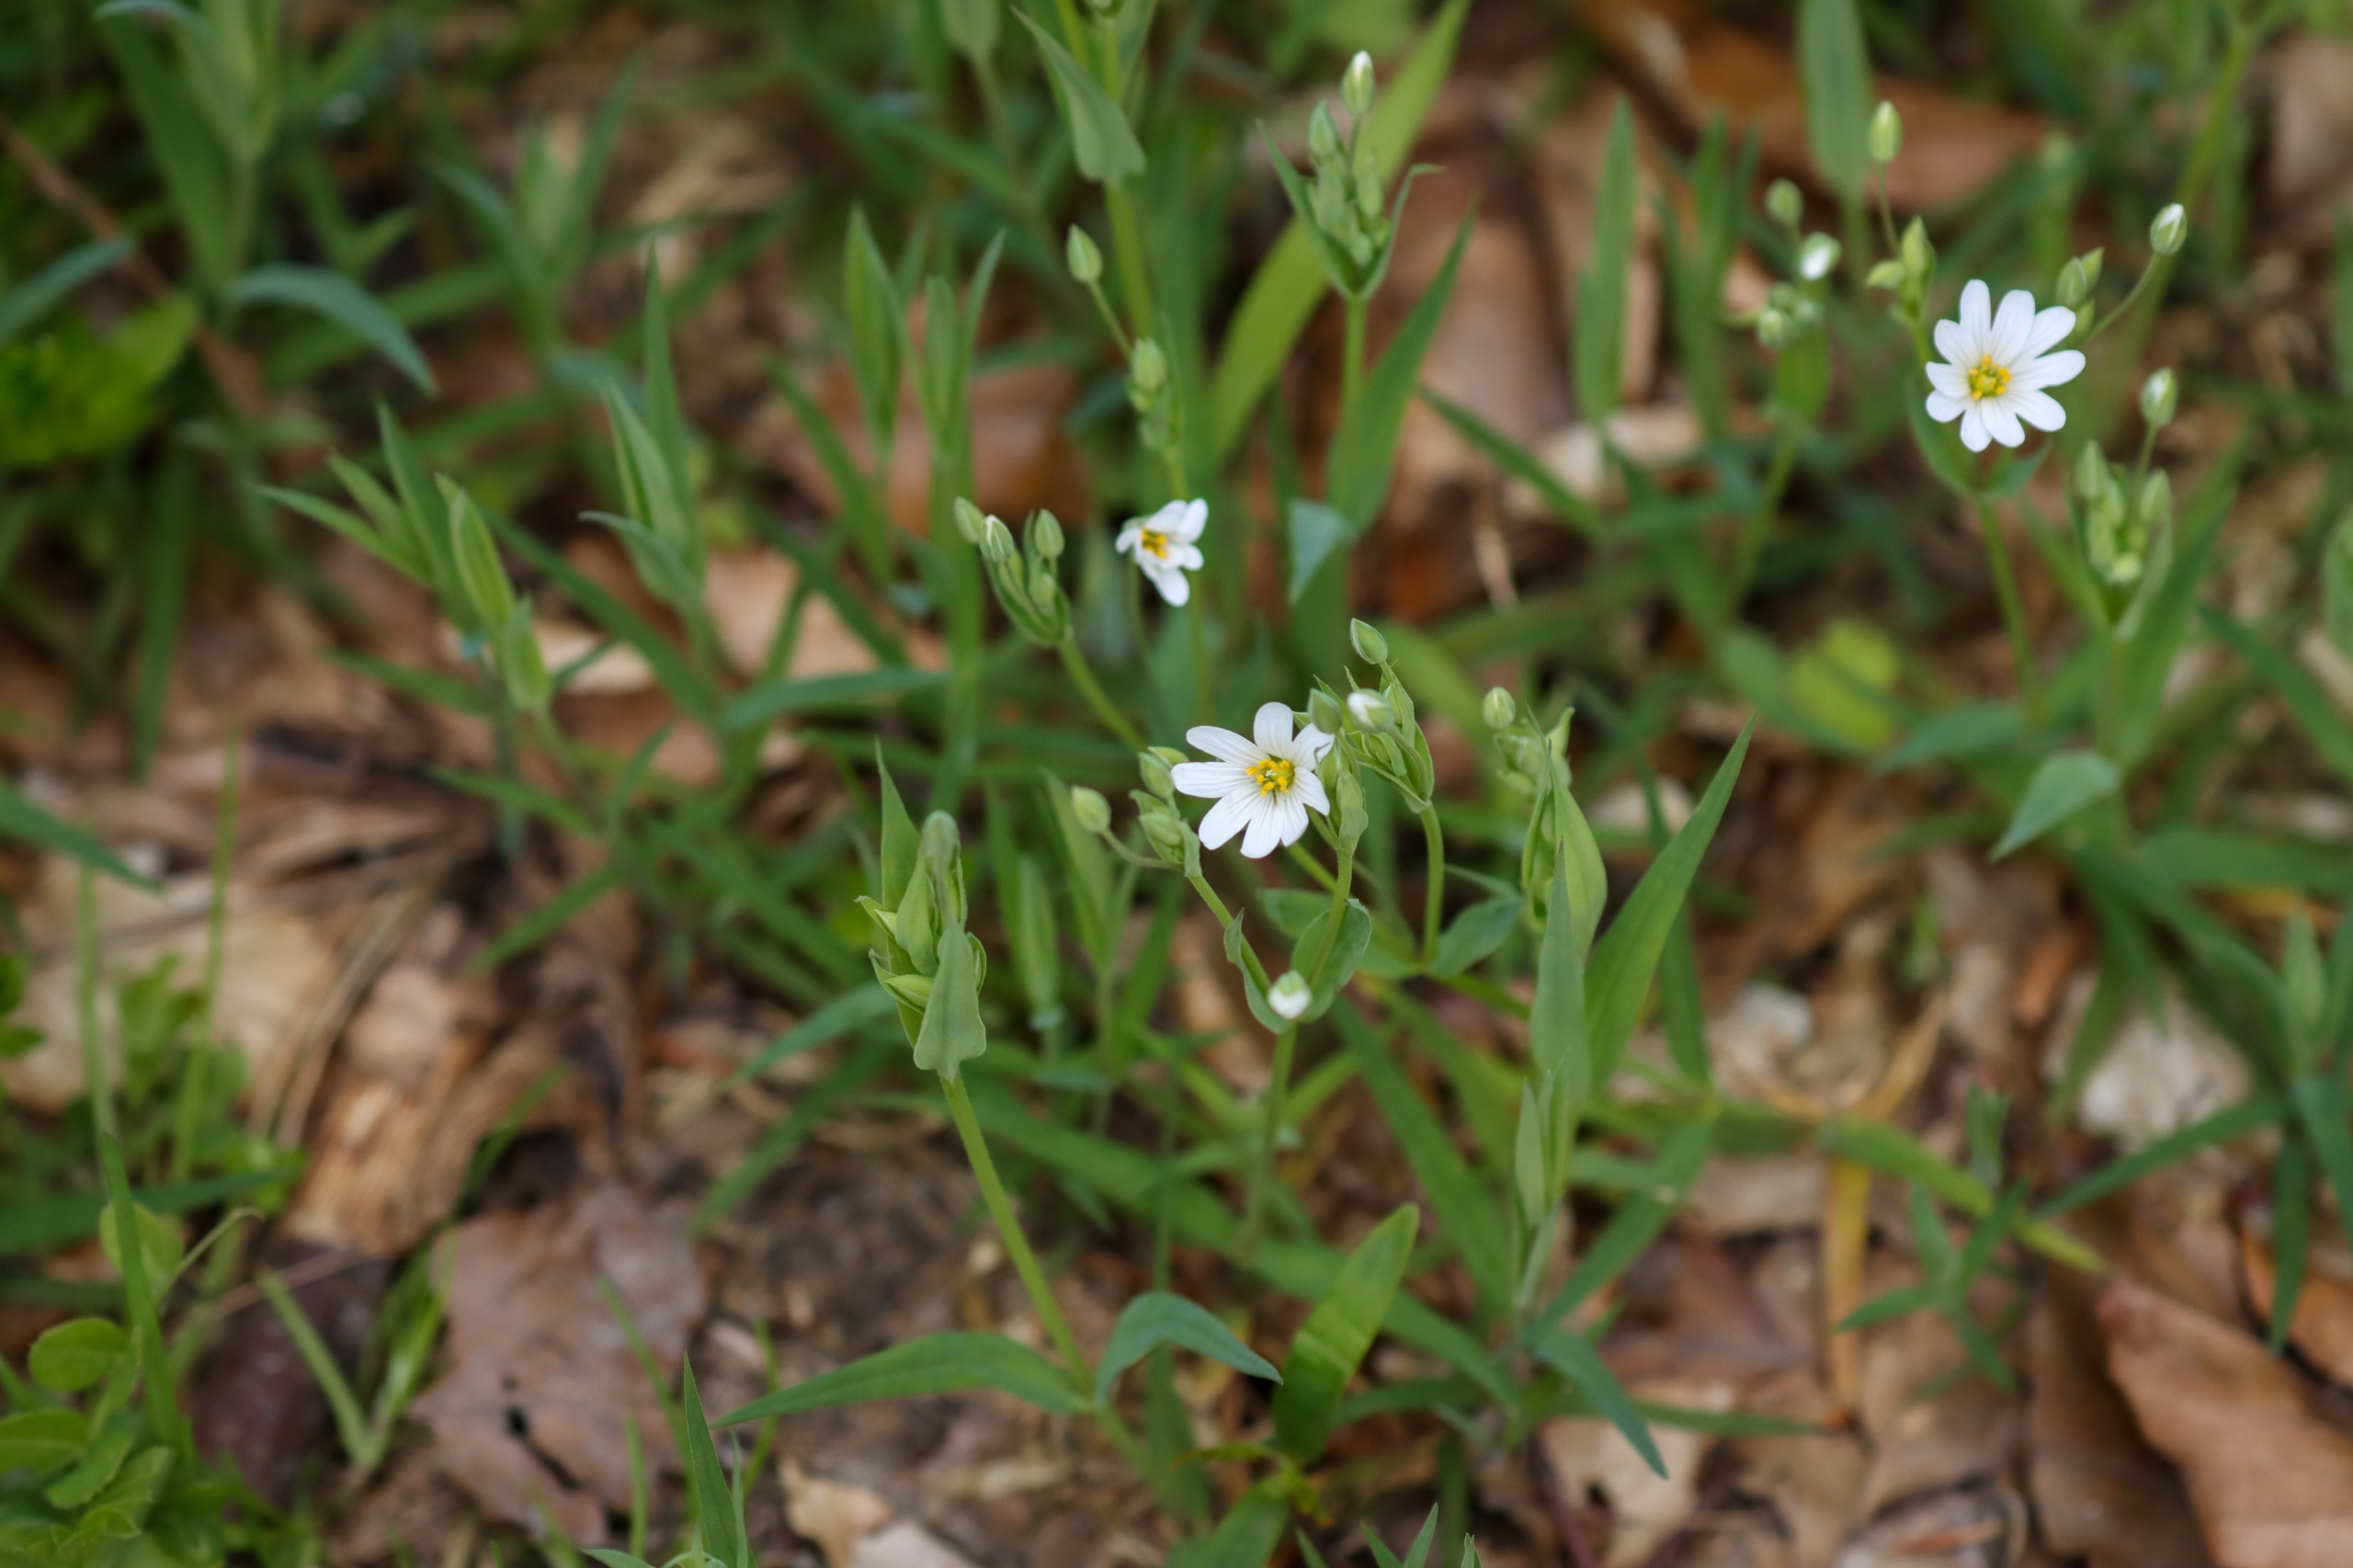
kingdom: Plantae
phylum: Tracheophyta
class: Magnoliopsida
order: Caryophyllales
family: Caryophyllaceae
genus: Rabelera
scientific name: Rabelera holostea
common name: Stor fladstjerne
